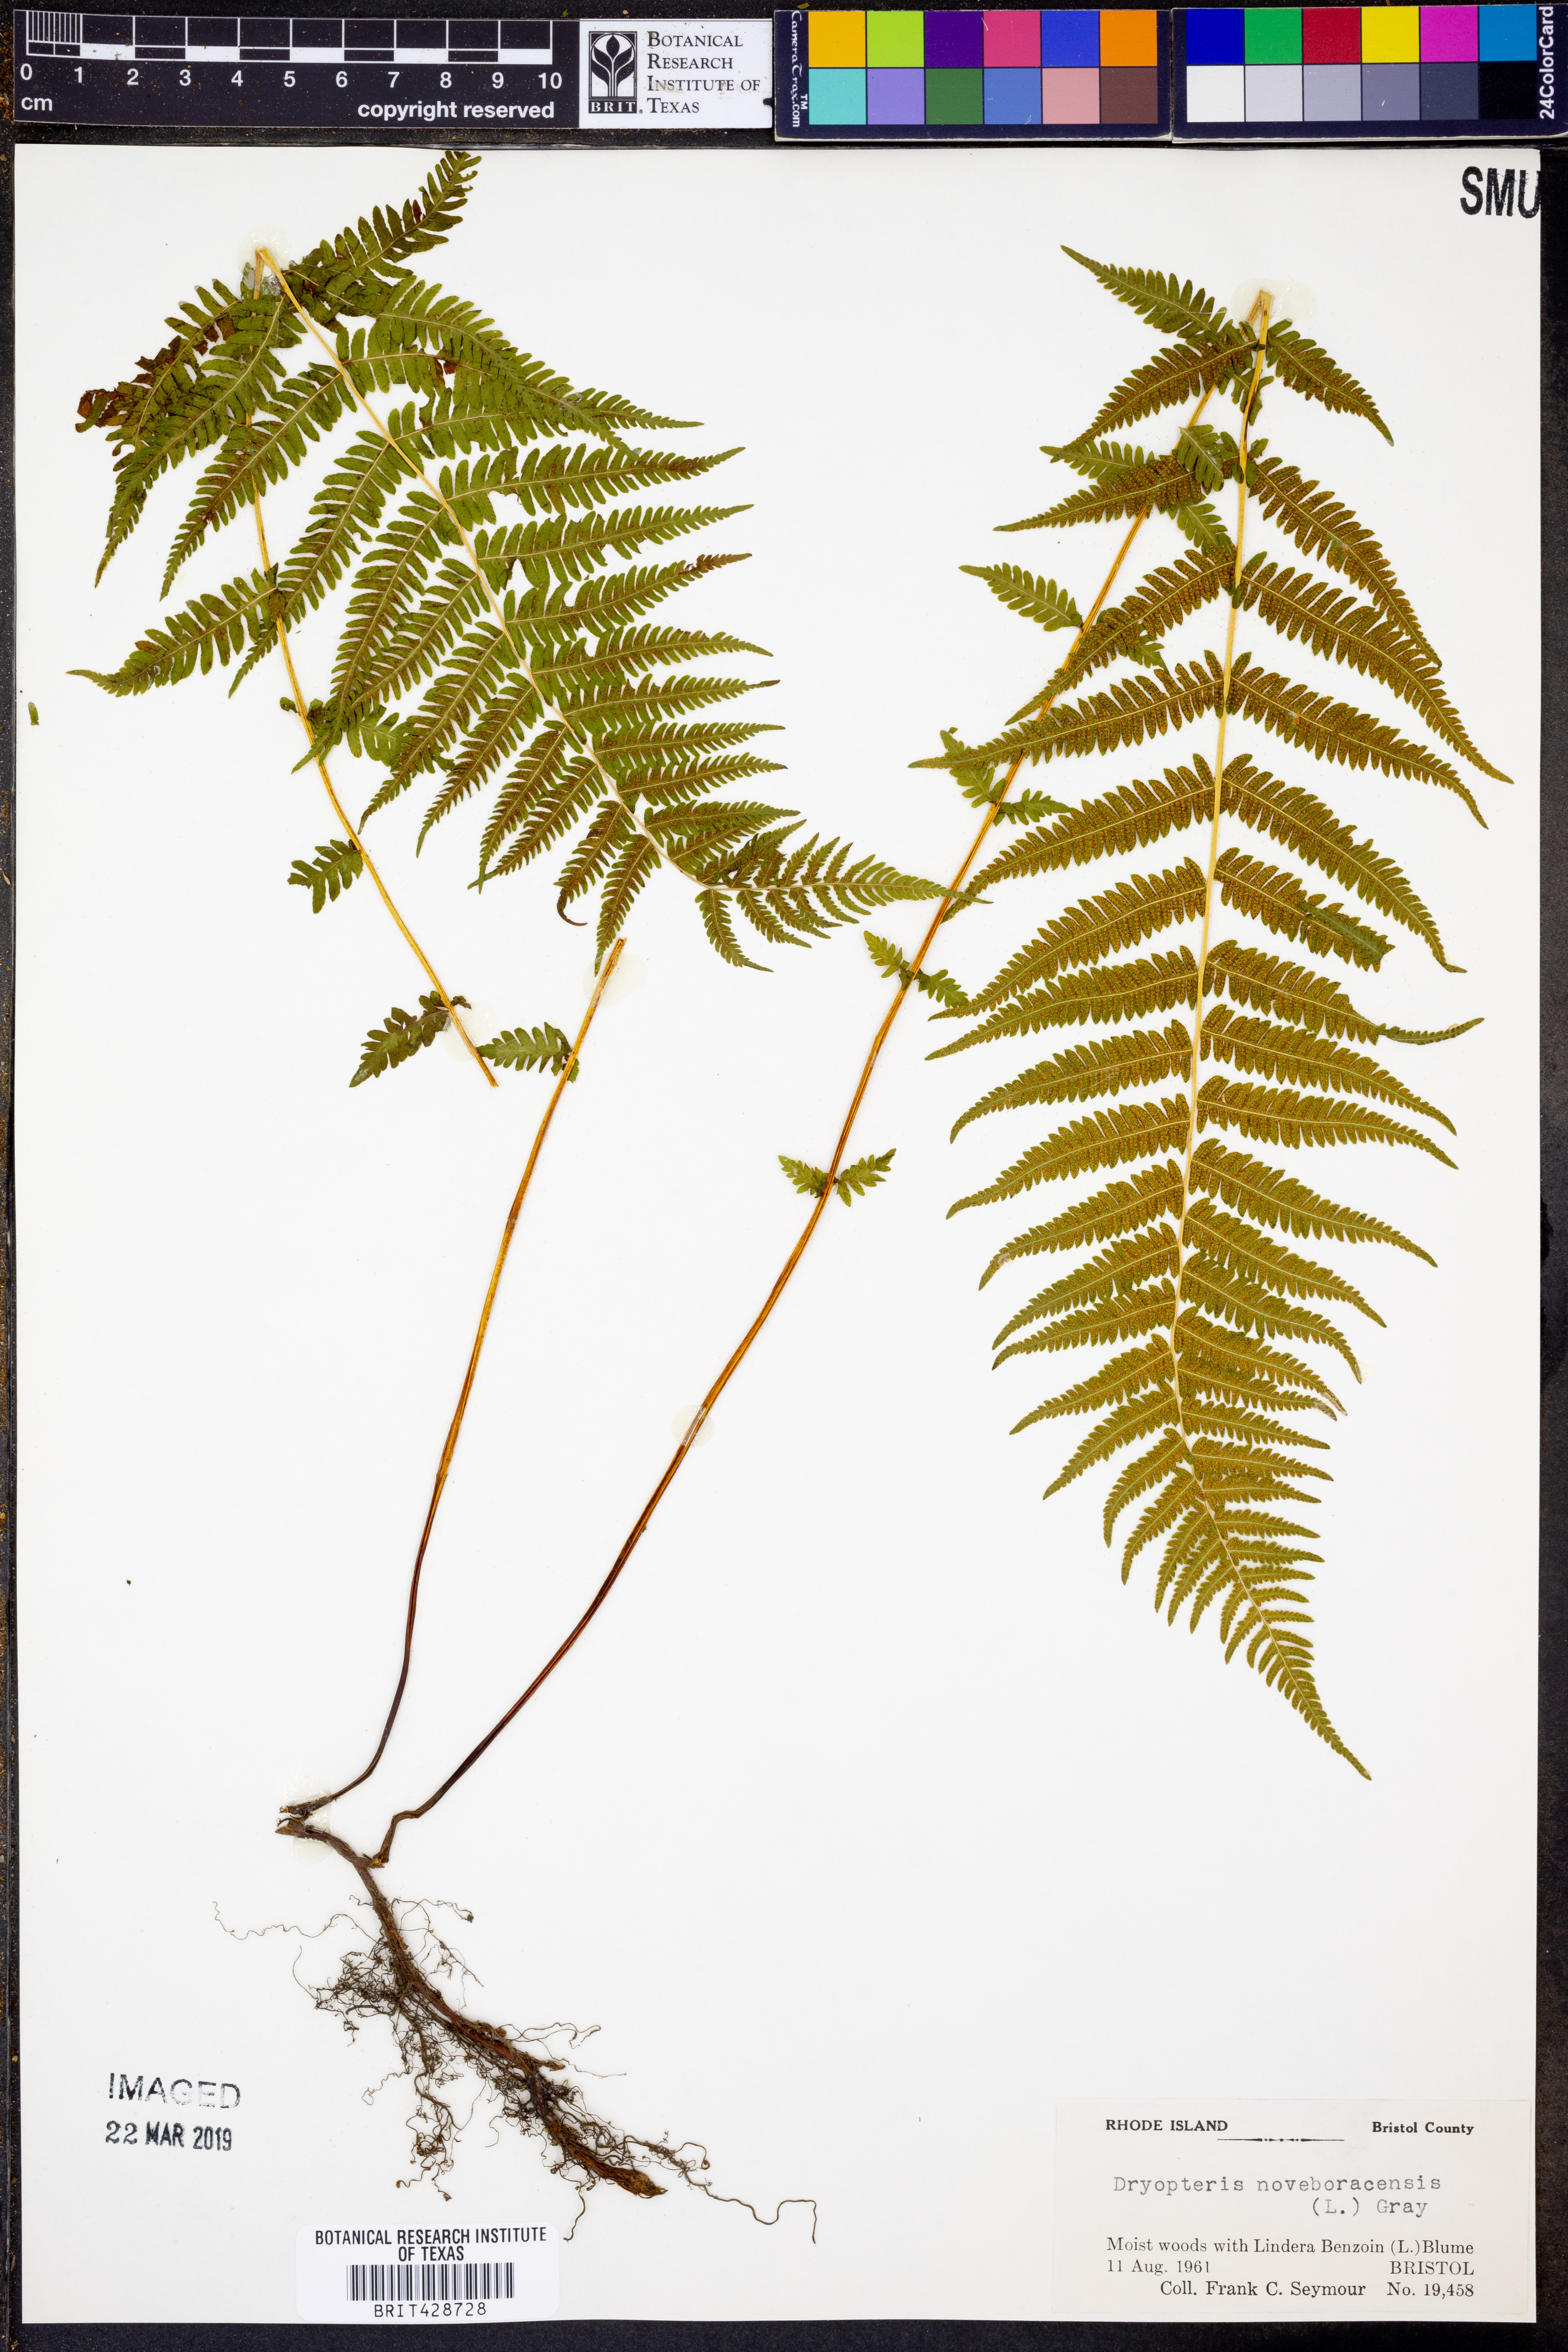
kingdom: Plantae
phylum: Tracheophyta
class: Polypodiopsida
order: Polypodiales
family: Thelypteridaceae
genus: Amauropelta
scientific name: Amauropelta noveboracensis
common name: New york fern
